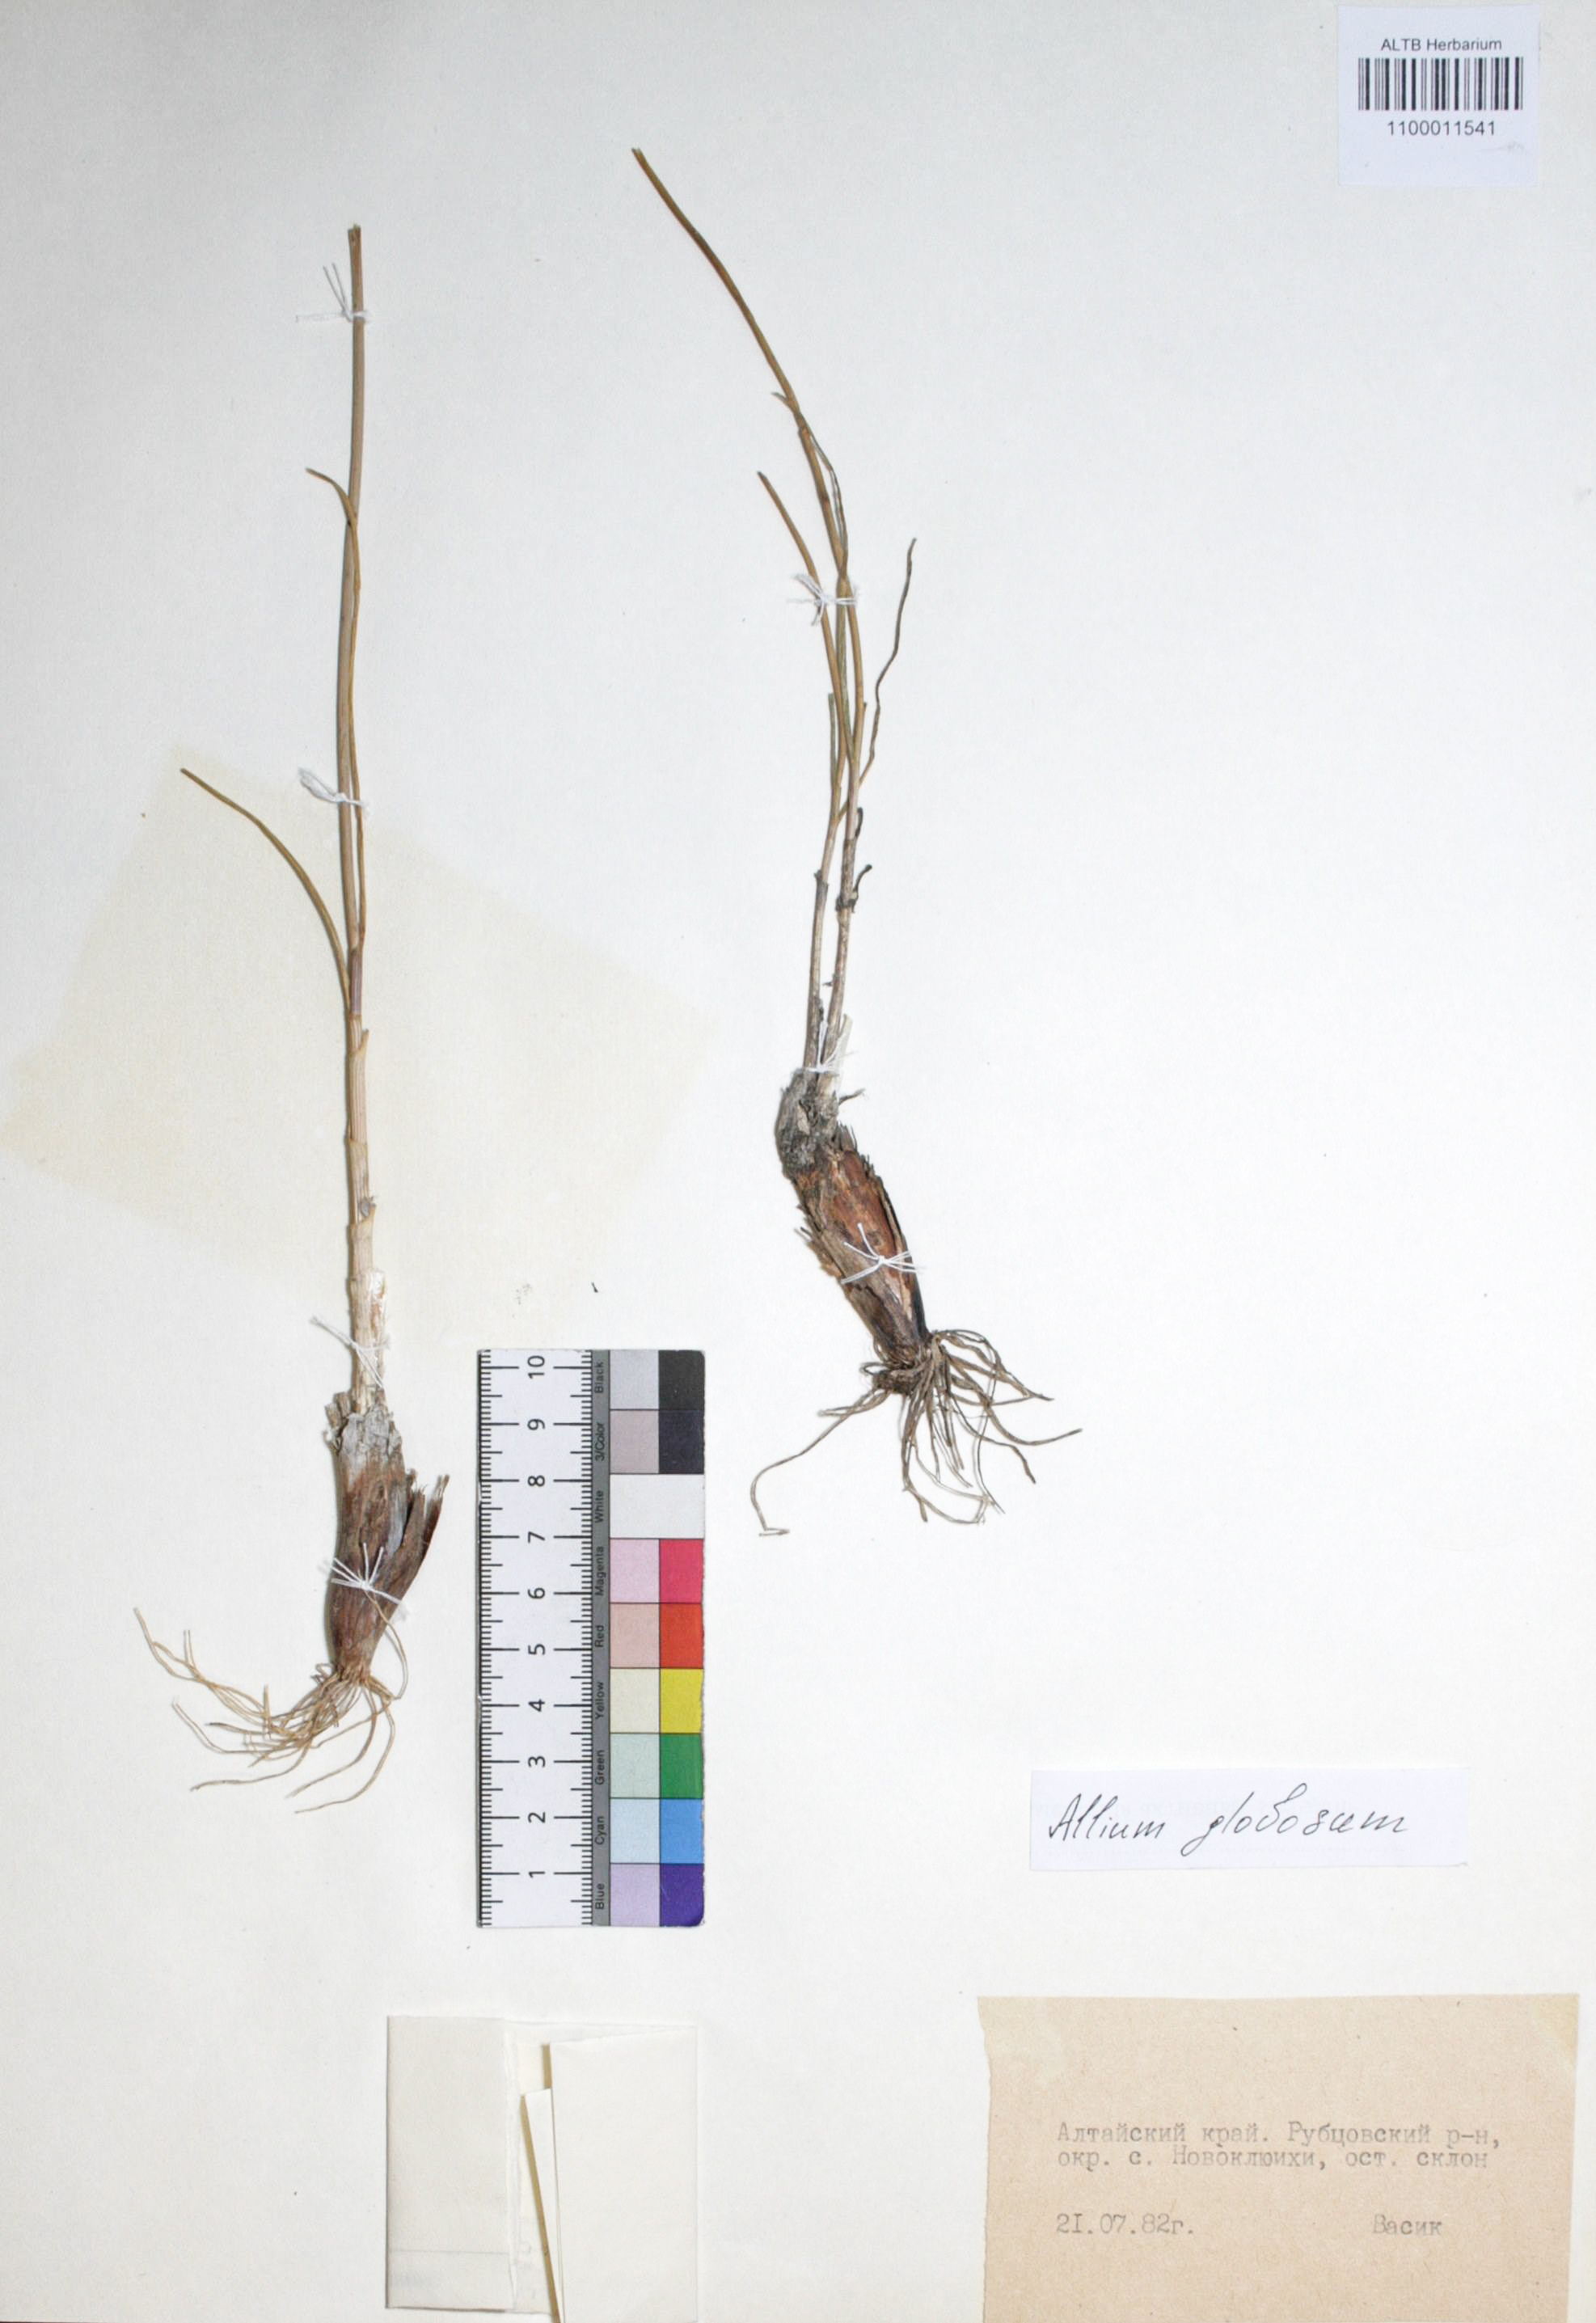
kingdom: Plantae
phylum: Tracheophyta
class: Liliopsida
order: Asparagales
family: Amaryllidaceae
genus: Allium
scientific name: Allium saxatile
